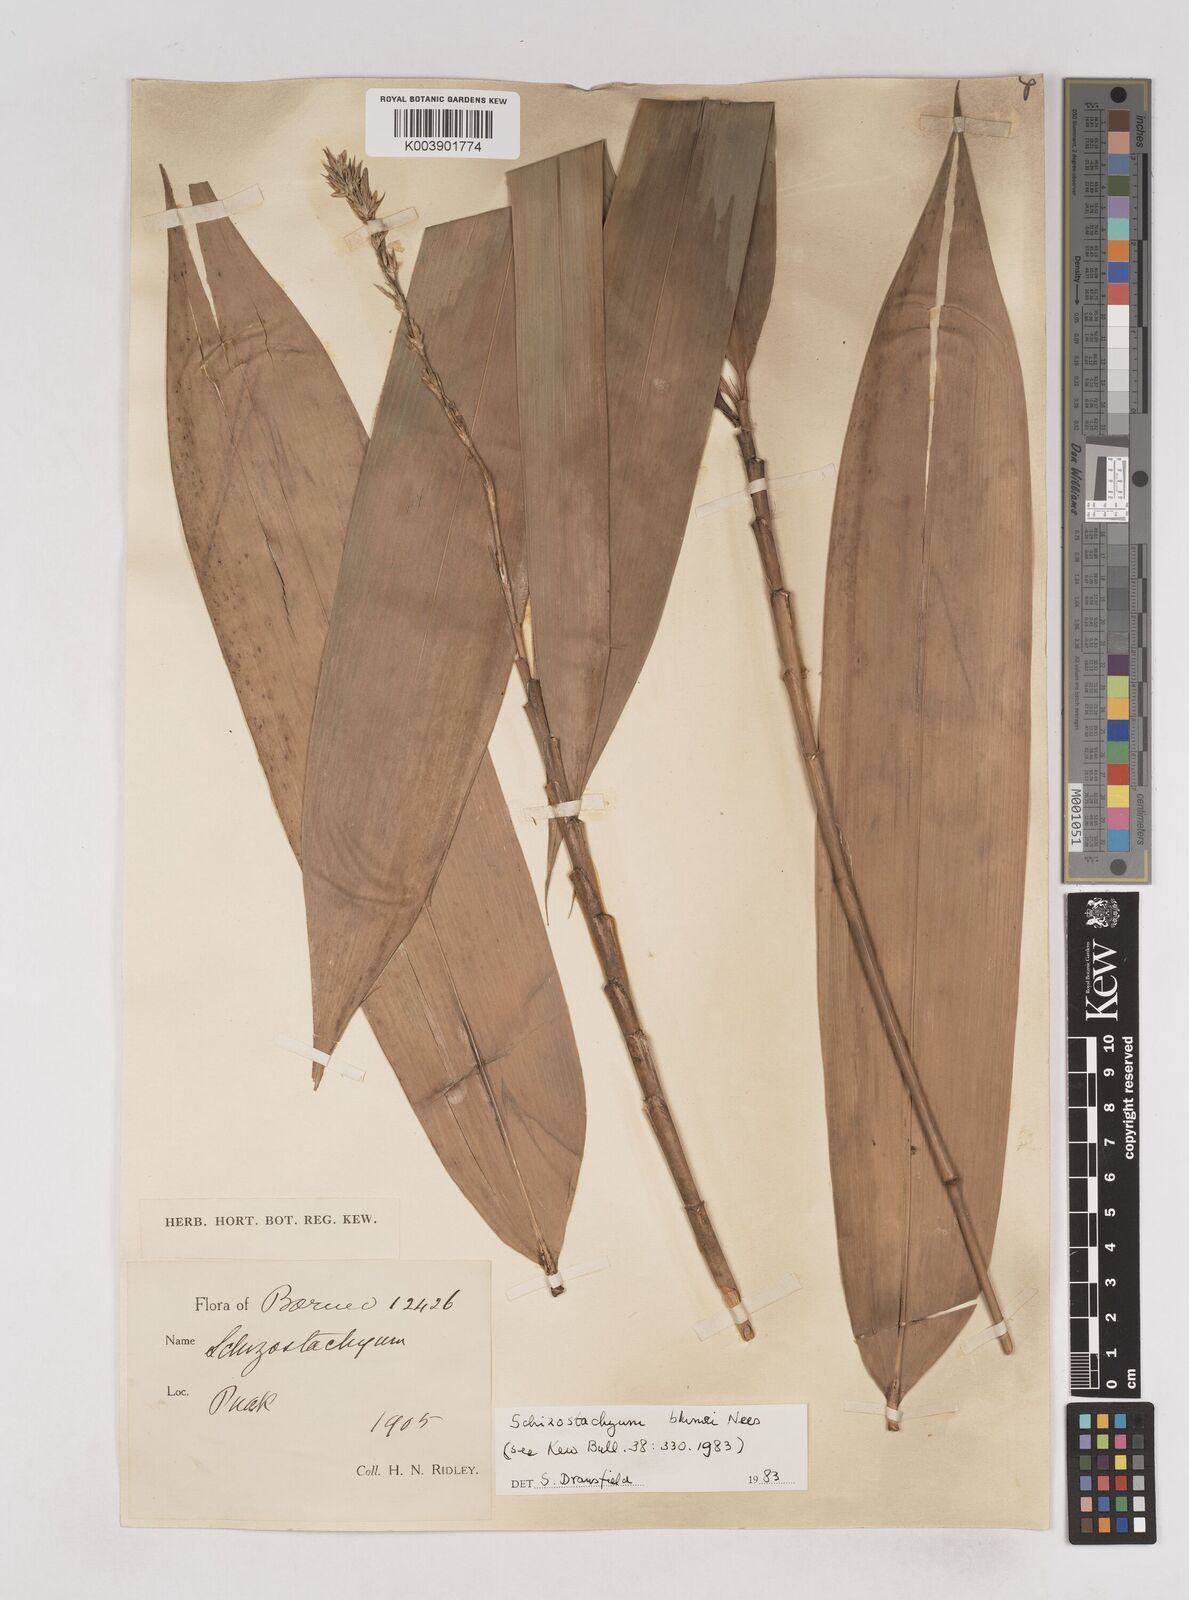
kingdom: Plantae
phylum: Tracheophyta
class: Liliopsida
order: Poales
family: Poaceae
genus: Schizostachyum
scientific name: Schizostachyum blumei
